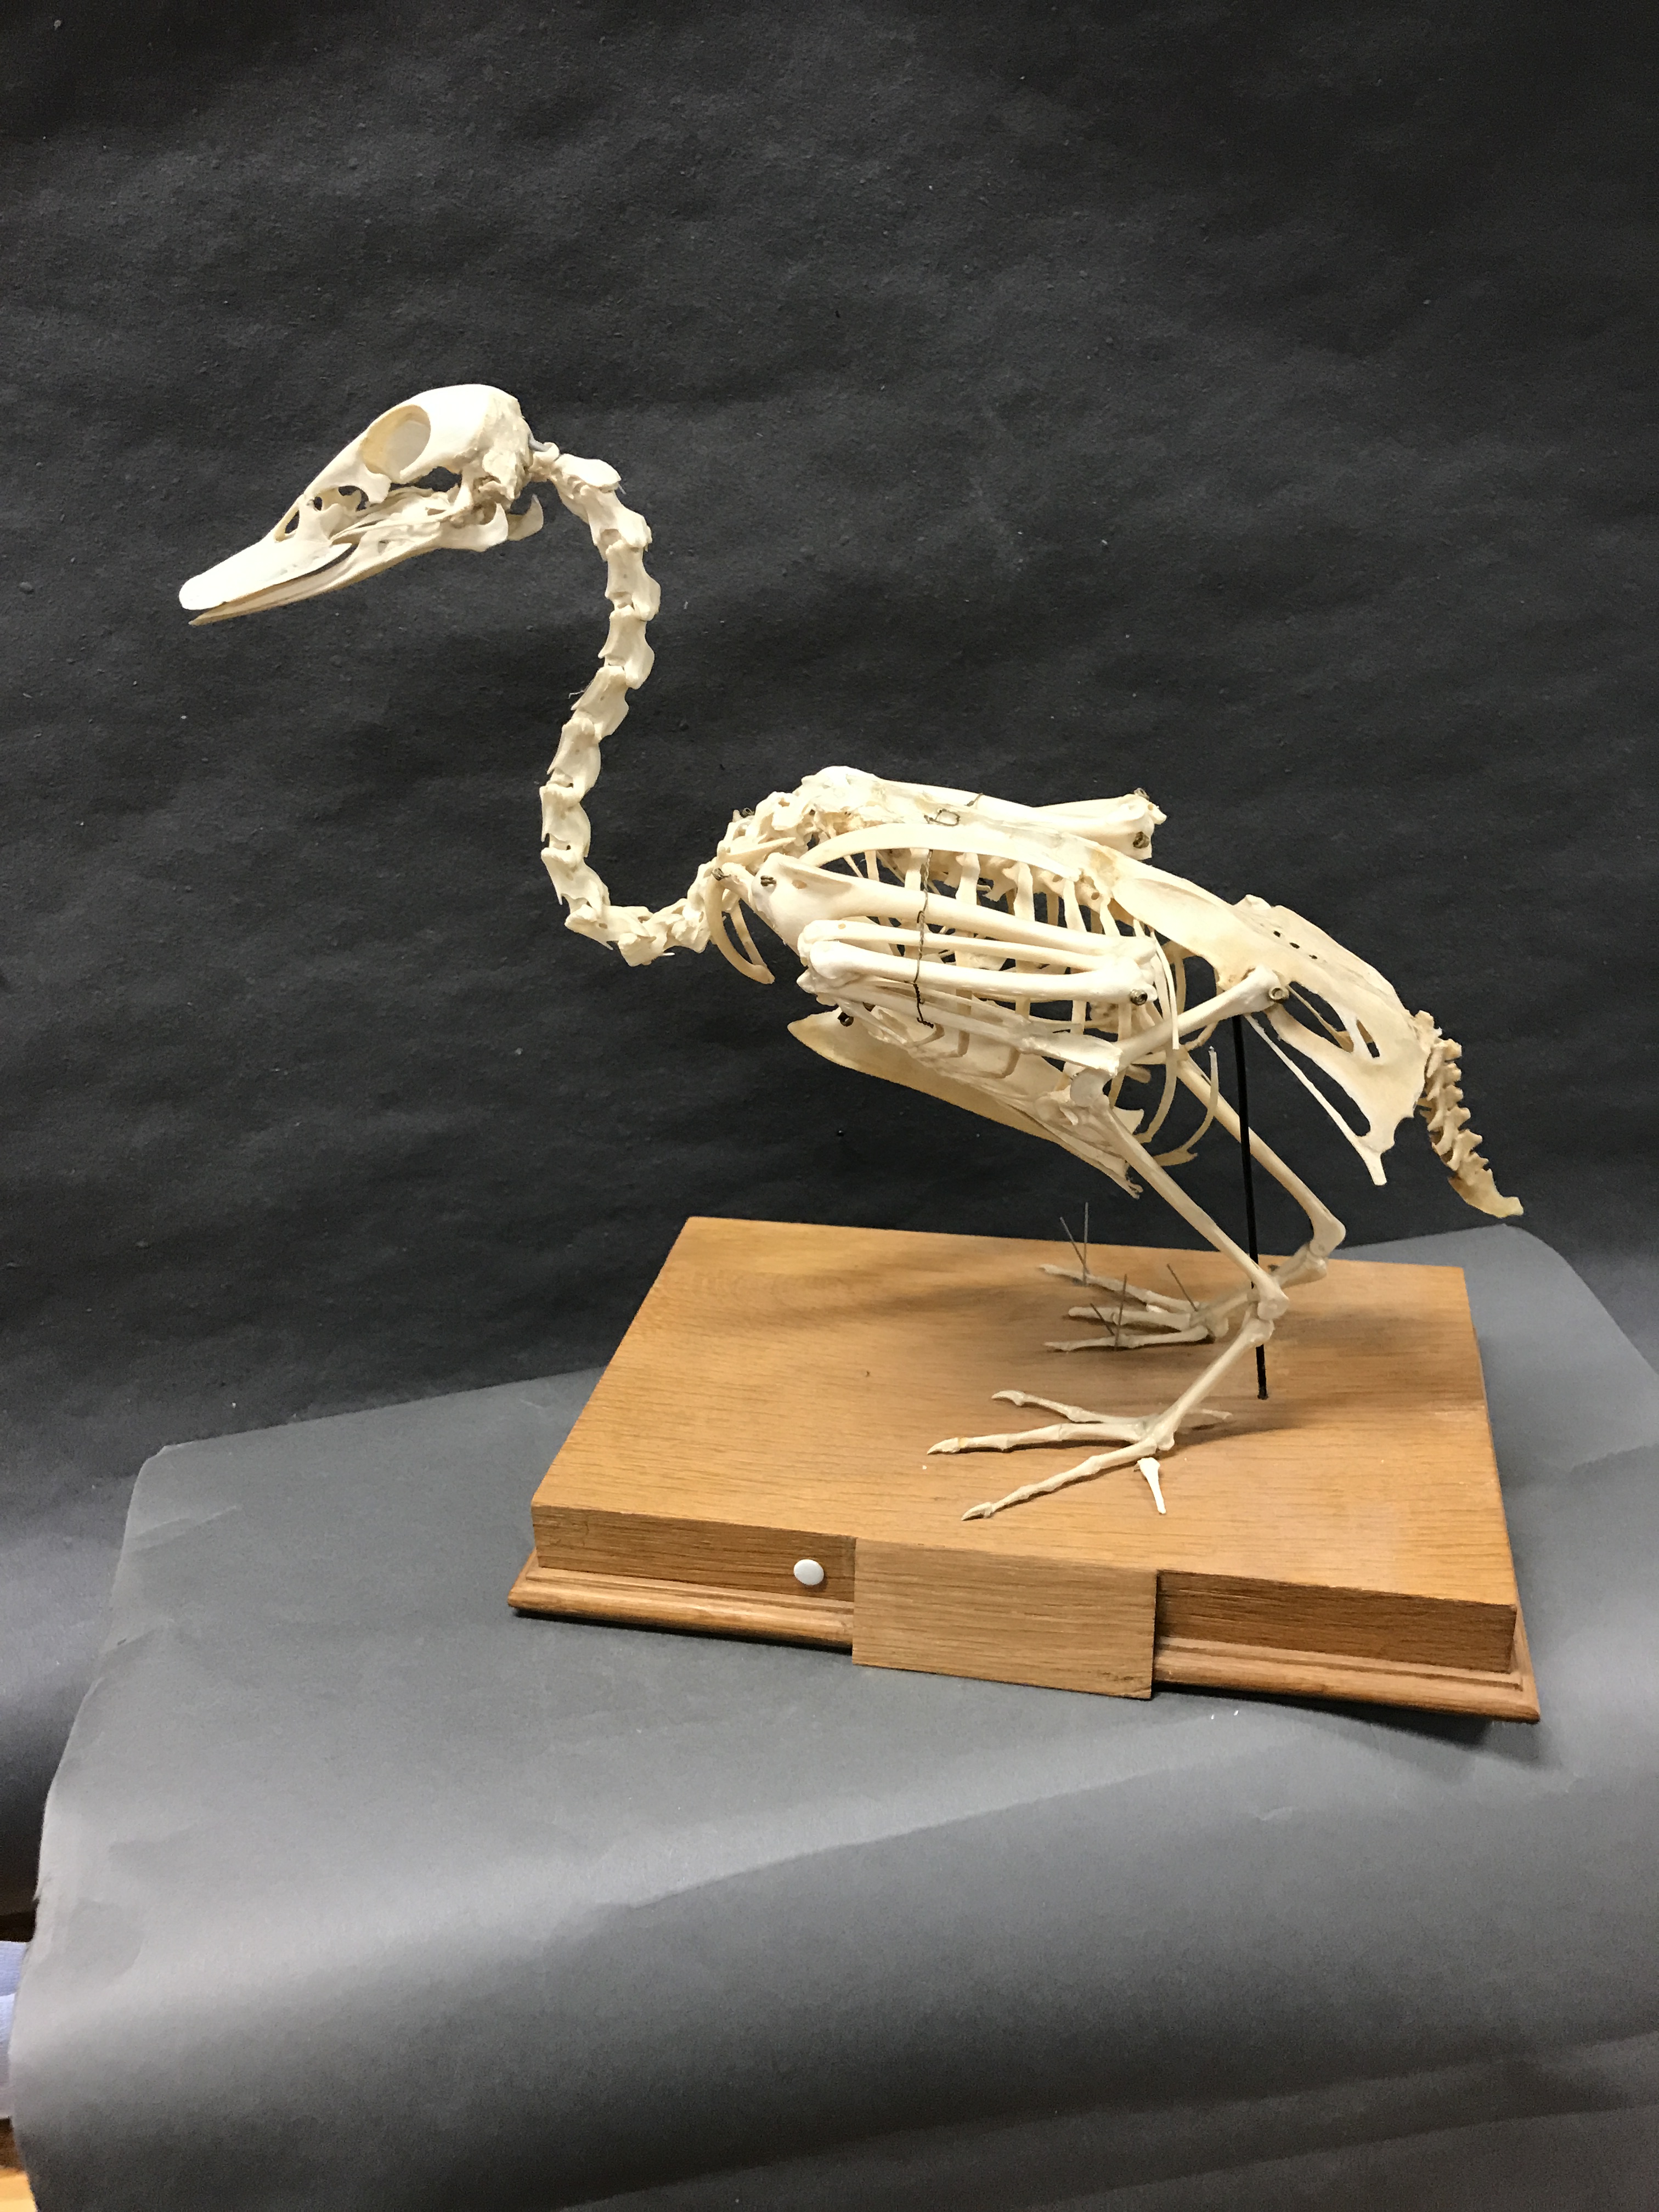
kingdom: Animalia
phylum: Chordata
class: Aves
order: Anseriformes
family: Anatidae
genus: Anas
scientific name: Anas platyrhynchos
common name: Mallard
